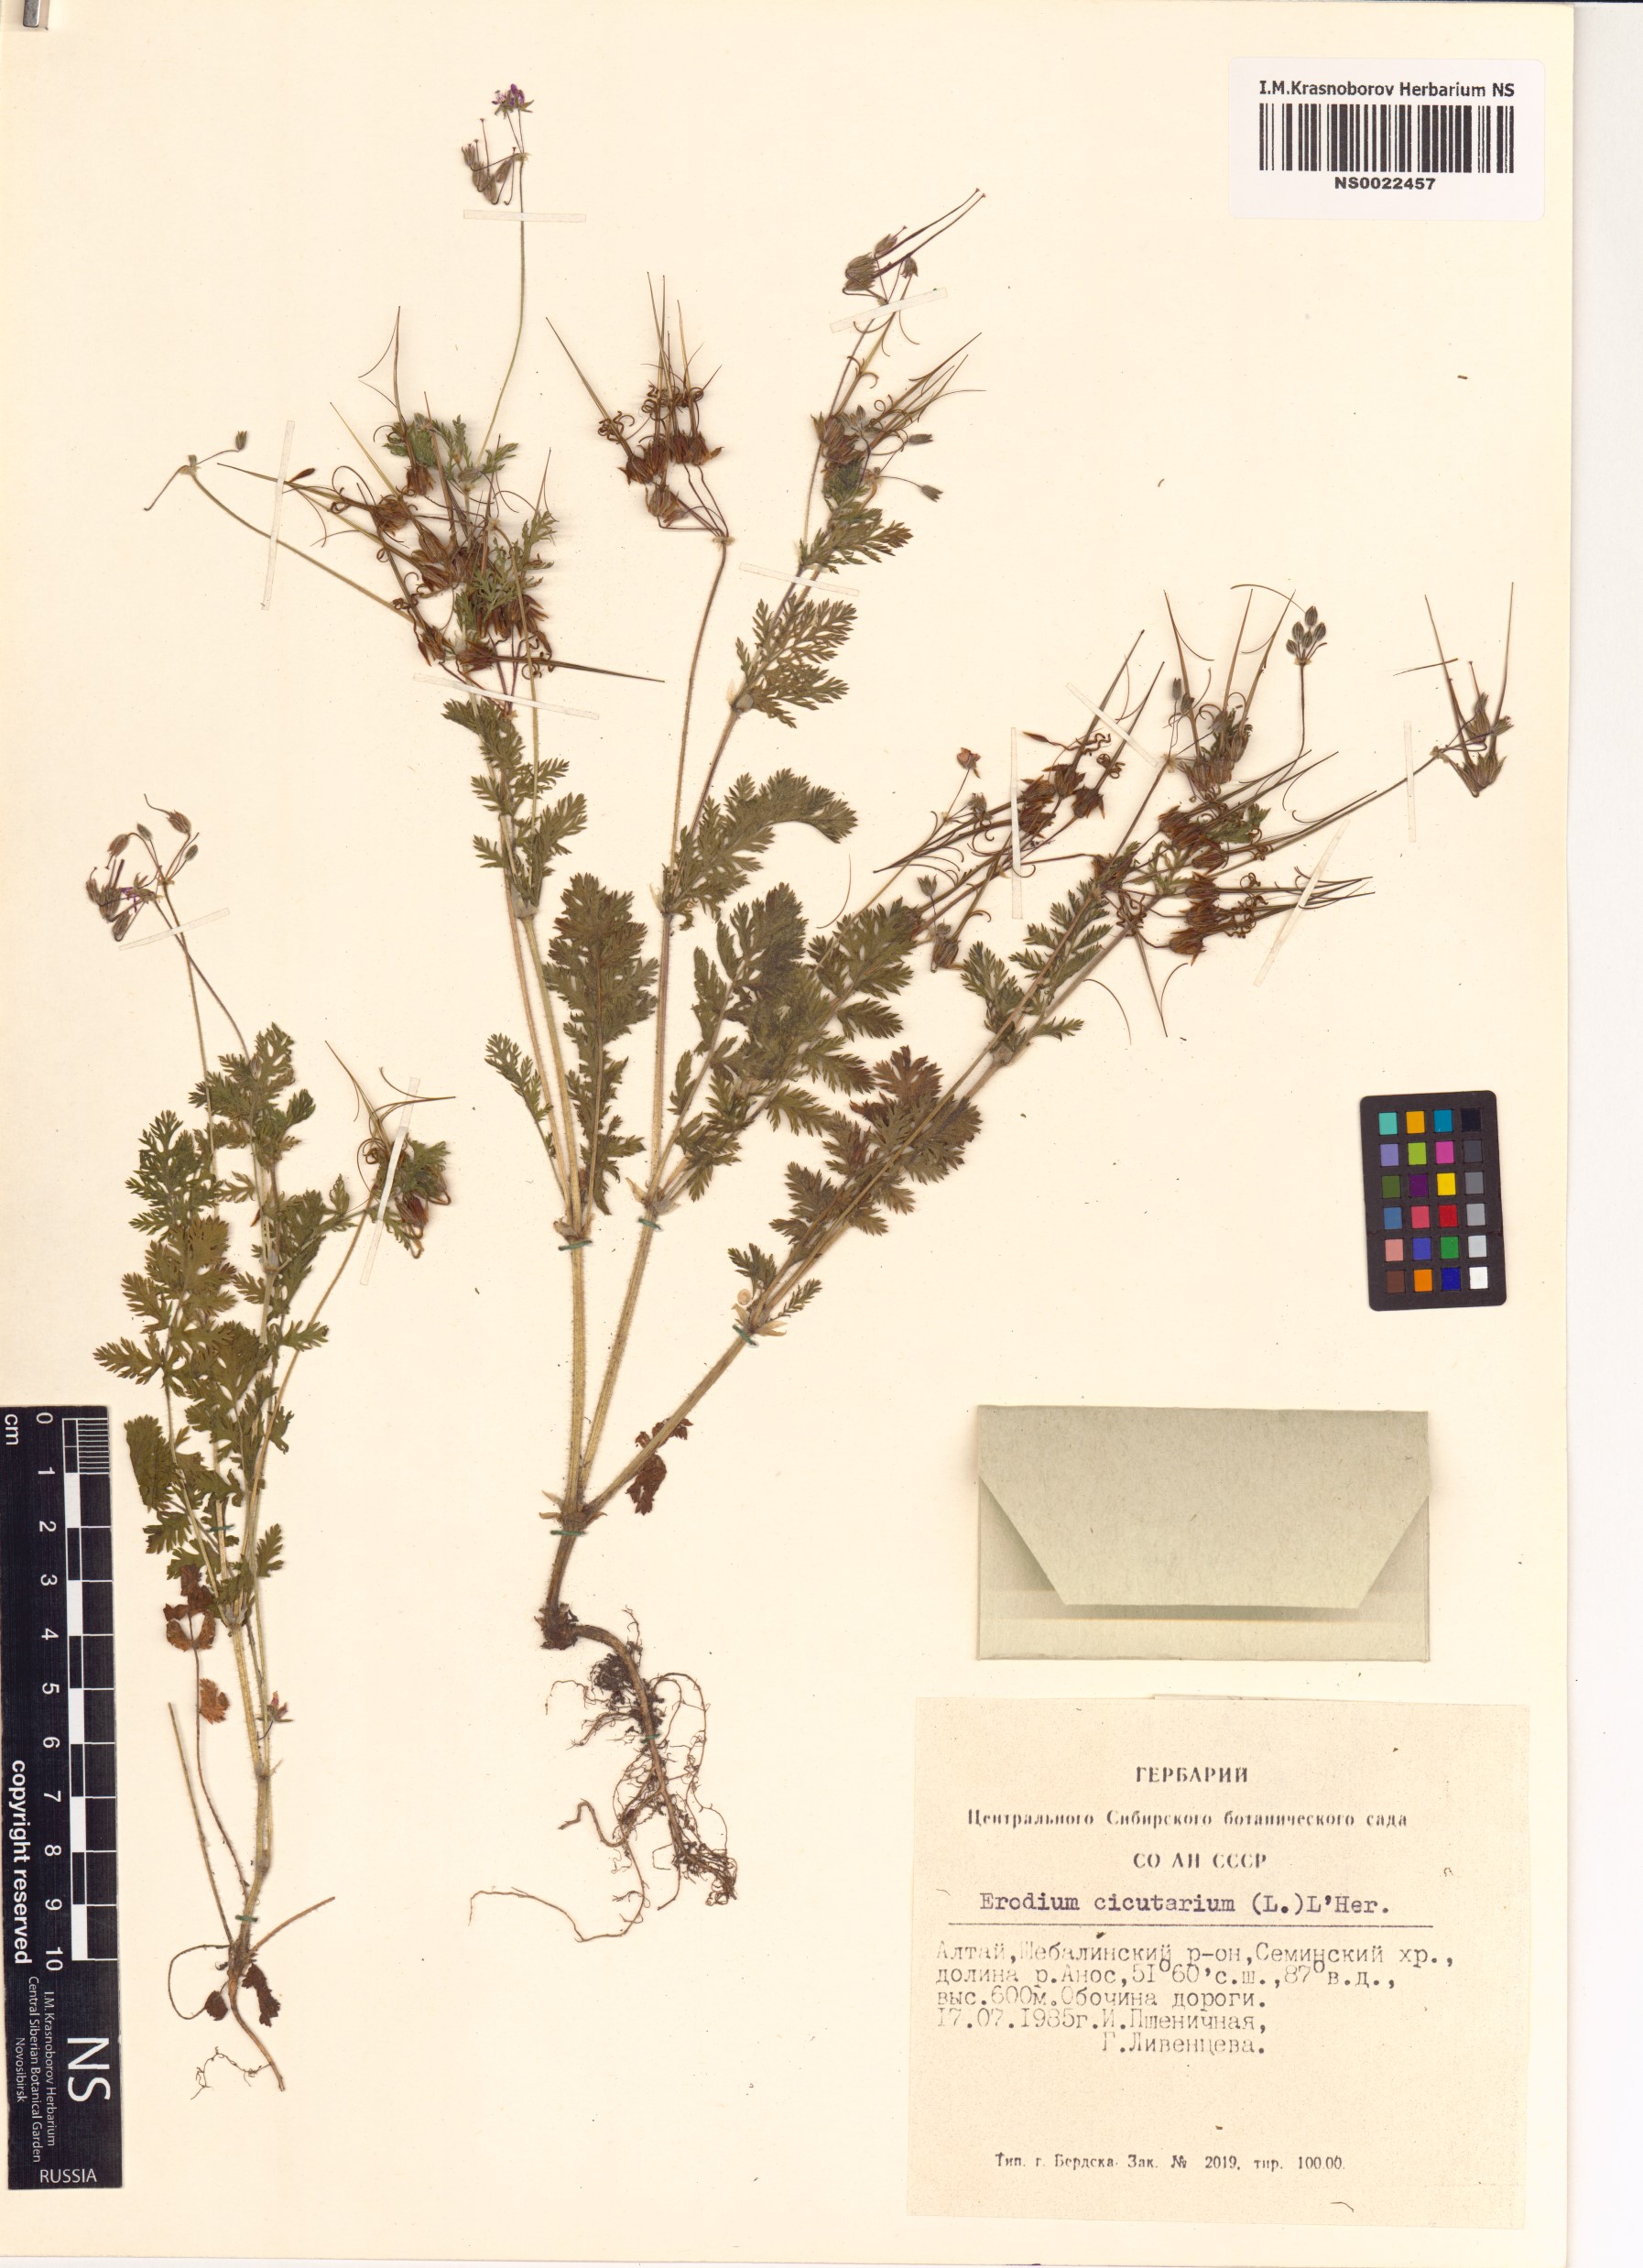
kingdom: Plantae
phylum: Tracheophyta
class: Magnoliopsida
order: Geraniales
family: Geraniaceae
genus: Erodium
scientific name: Erodium cicutarium
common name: Common stork's-bill
